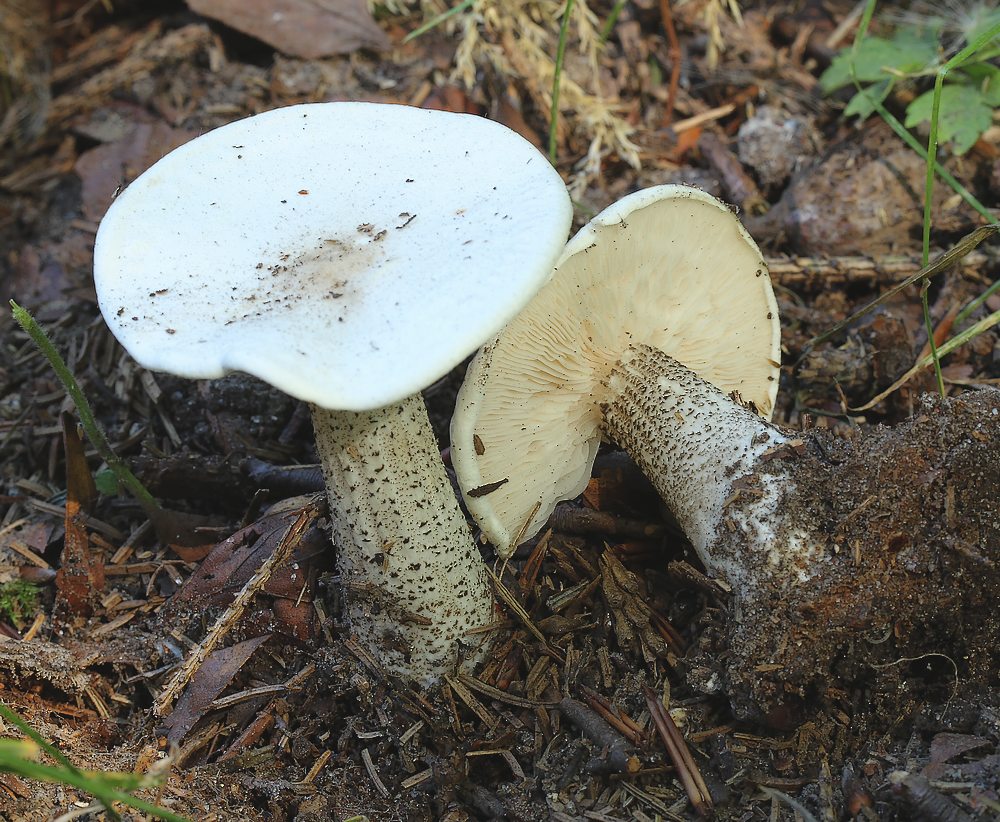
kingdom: Fungi
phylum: Basidiomycota
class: Agaricomycetes
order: Agaricales
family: Tricholomataceae
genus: Melanoleuca
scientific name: Melanoleuca verrucipes
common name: rufodet munkehat
